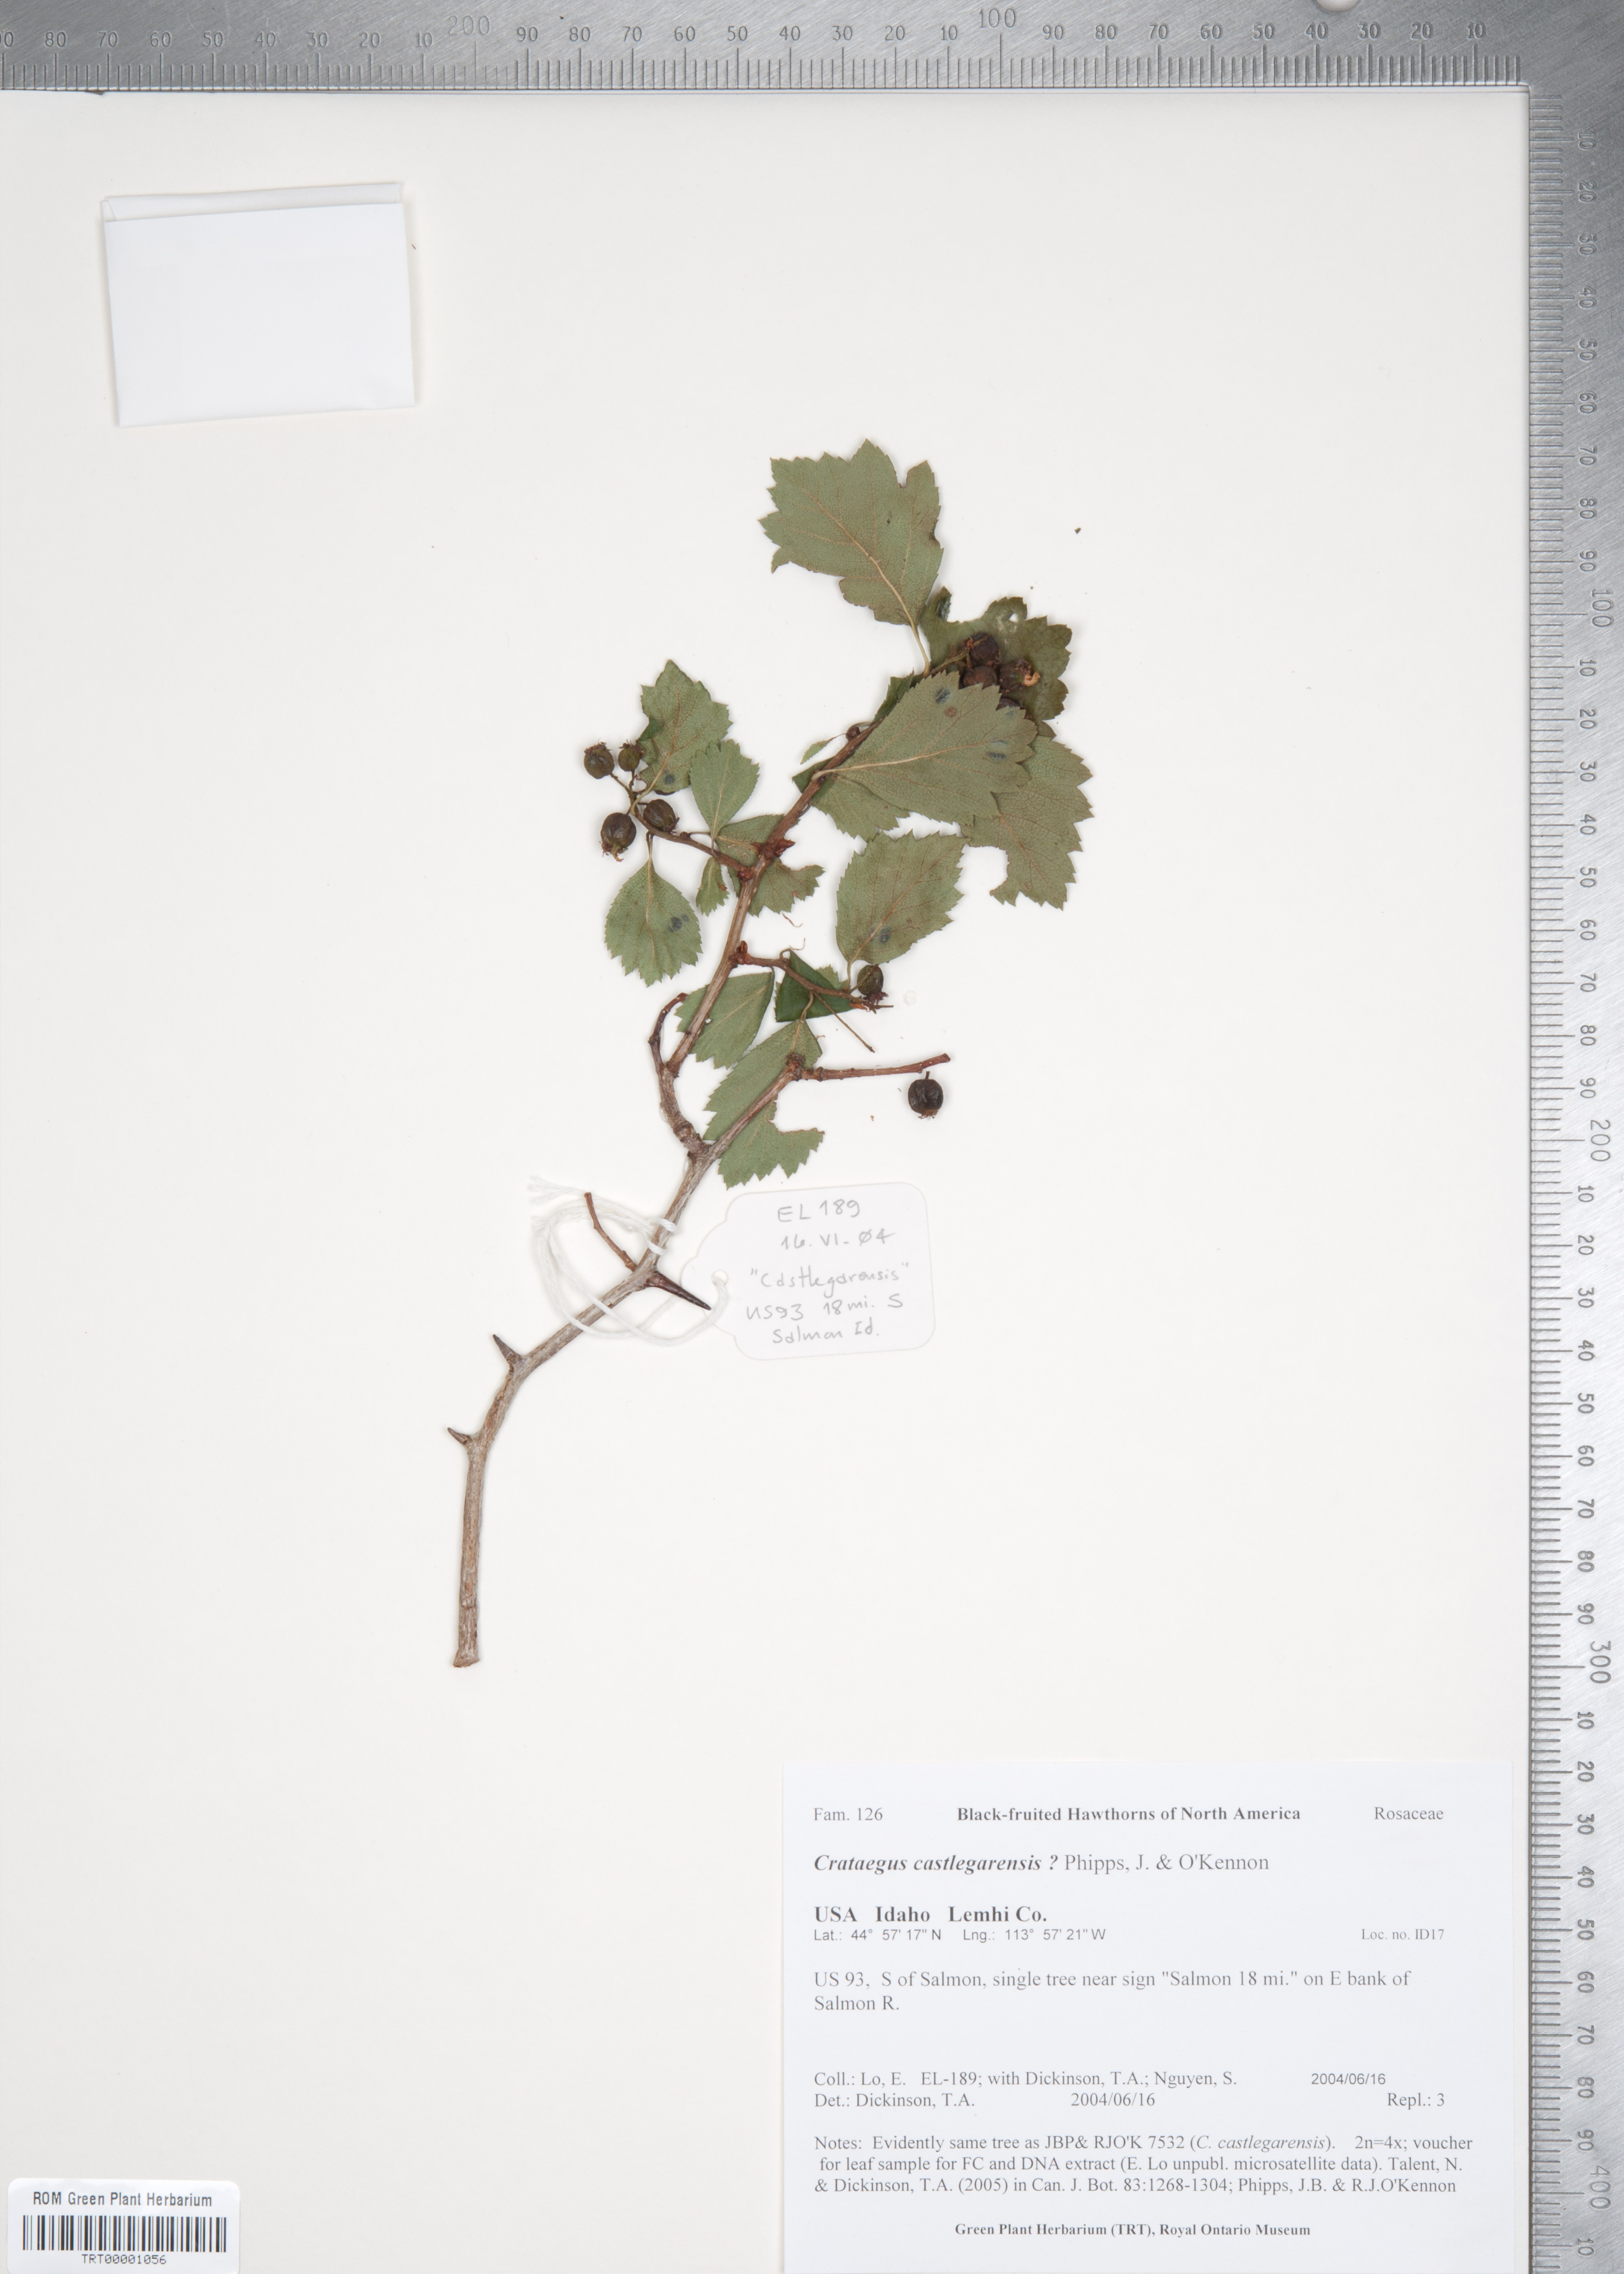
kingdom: Plantae
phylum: Tracheophyta
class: Magnoliopsida
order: Rosales
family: Rosaceae
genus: Crataegus
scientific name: Crataegus castlegarensis
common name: Castlegar hawthorn
